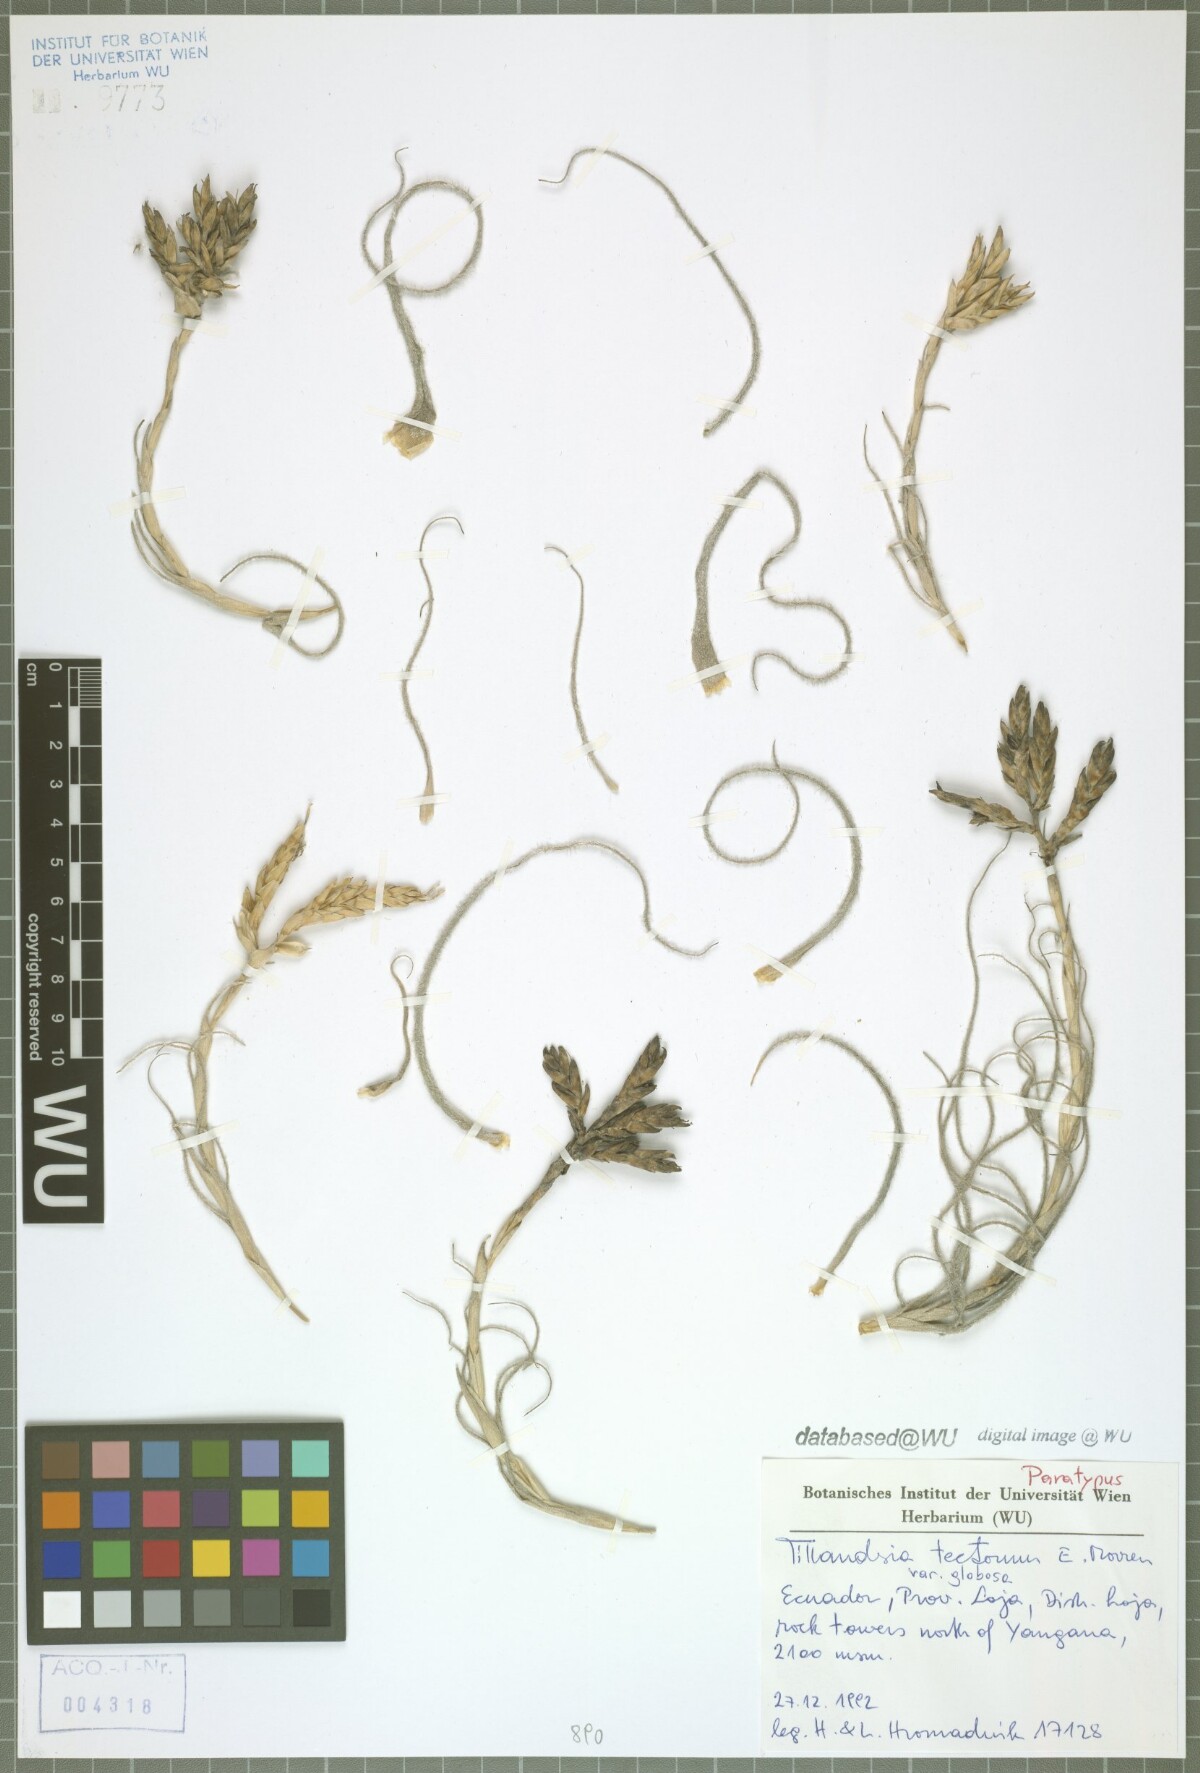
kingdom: Plantae
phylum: Tracheophyta
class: Liliopsida
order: Poales
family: Bromeliaceae
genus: Tillandsia
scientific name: Tillandsia tectorum
